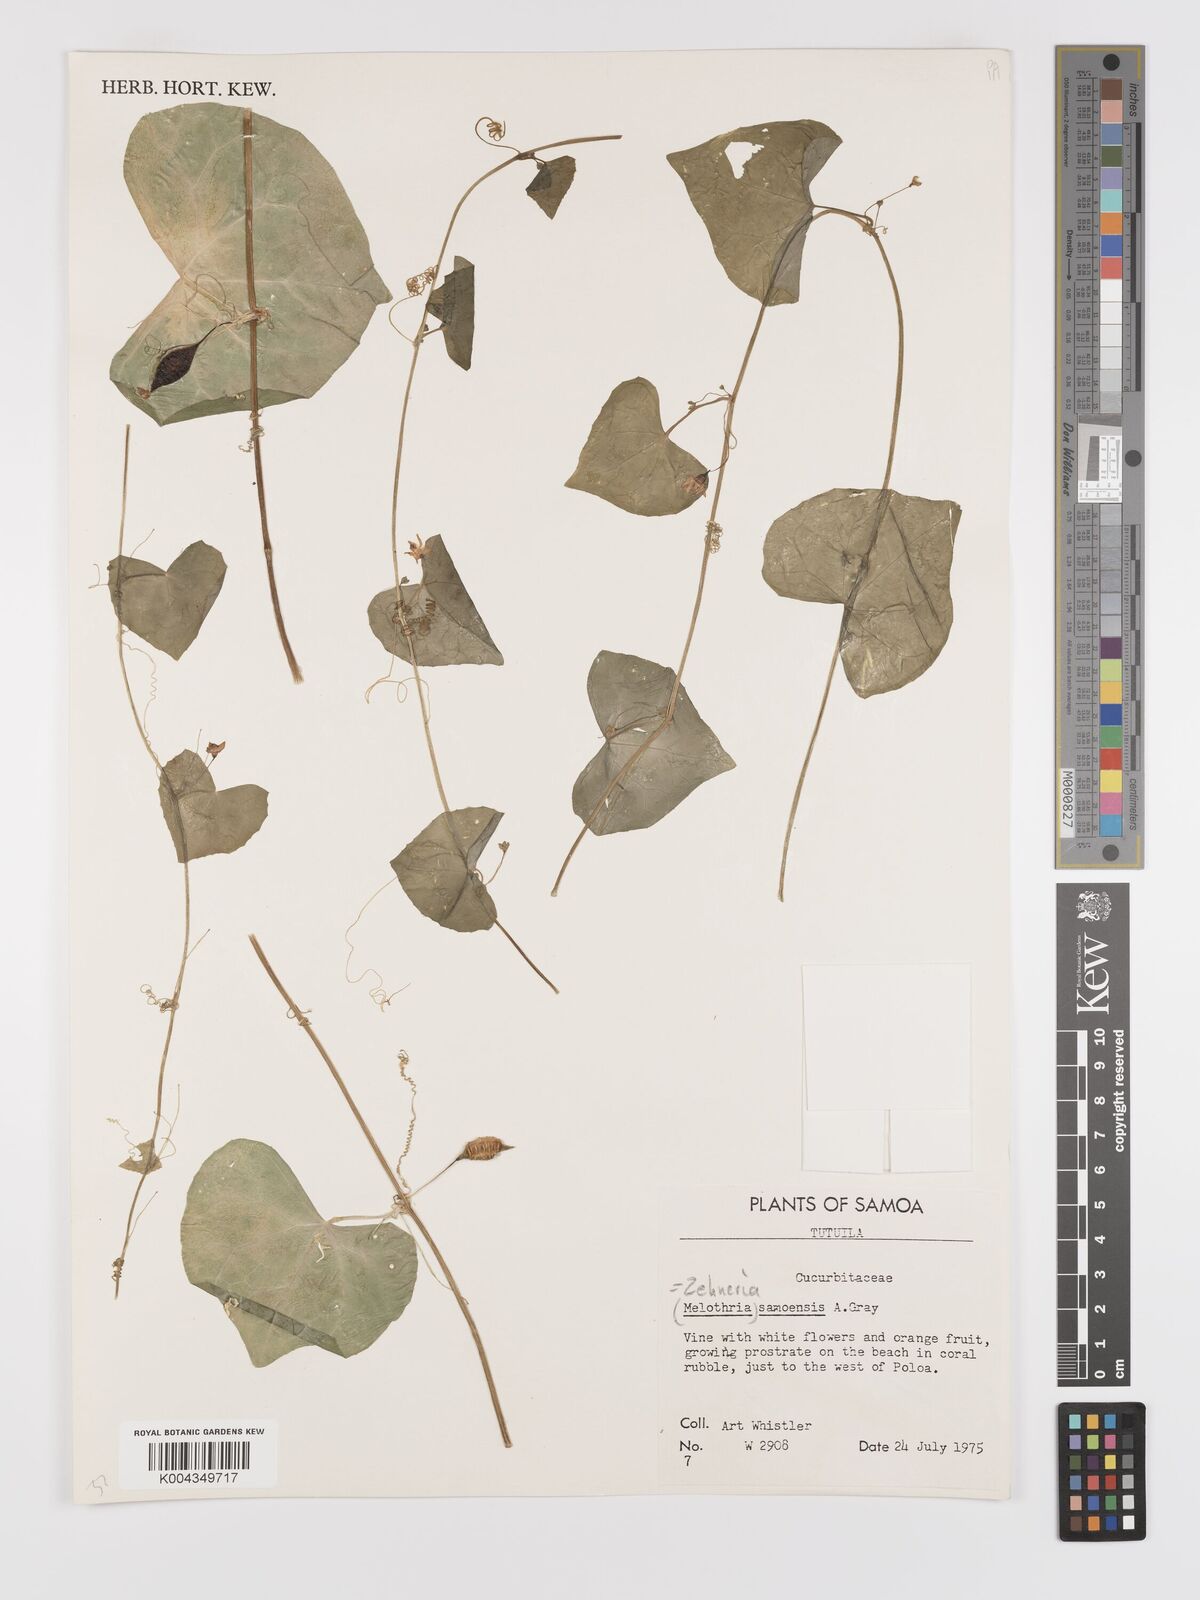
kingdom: Plantae
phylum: Tracheophyta
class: Magnoliopsida
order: Cucurbitales
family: Cucurbitaceae
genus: Zehneria
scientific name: Zehneria mucronata
